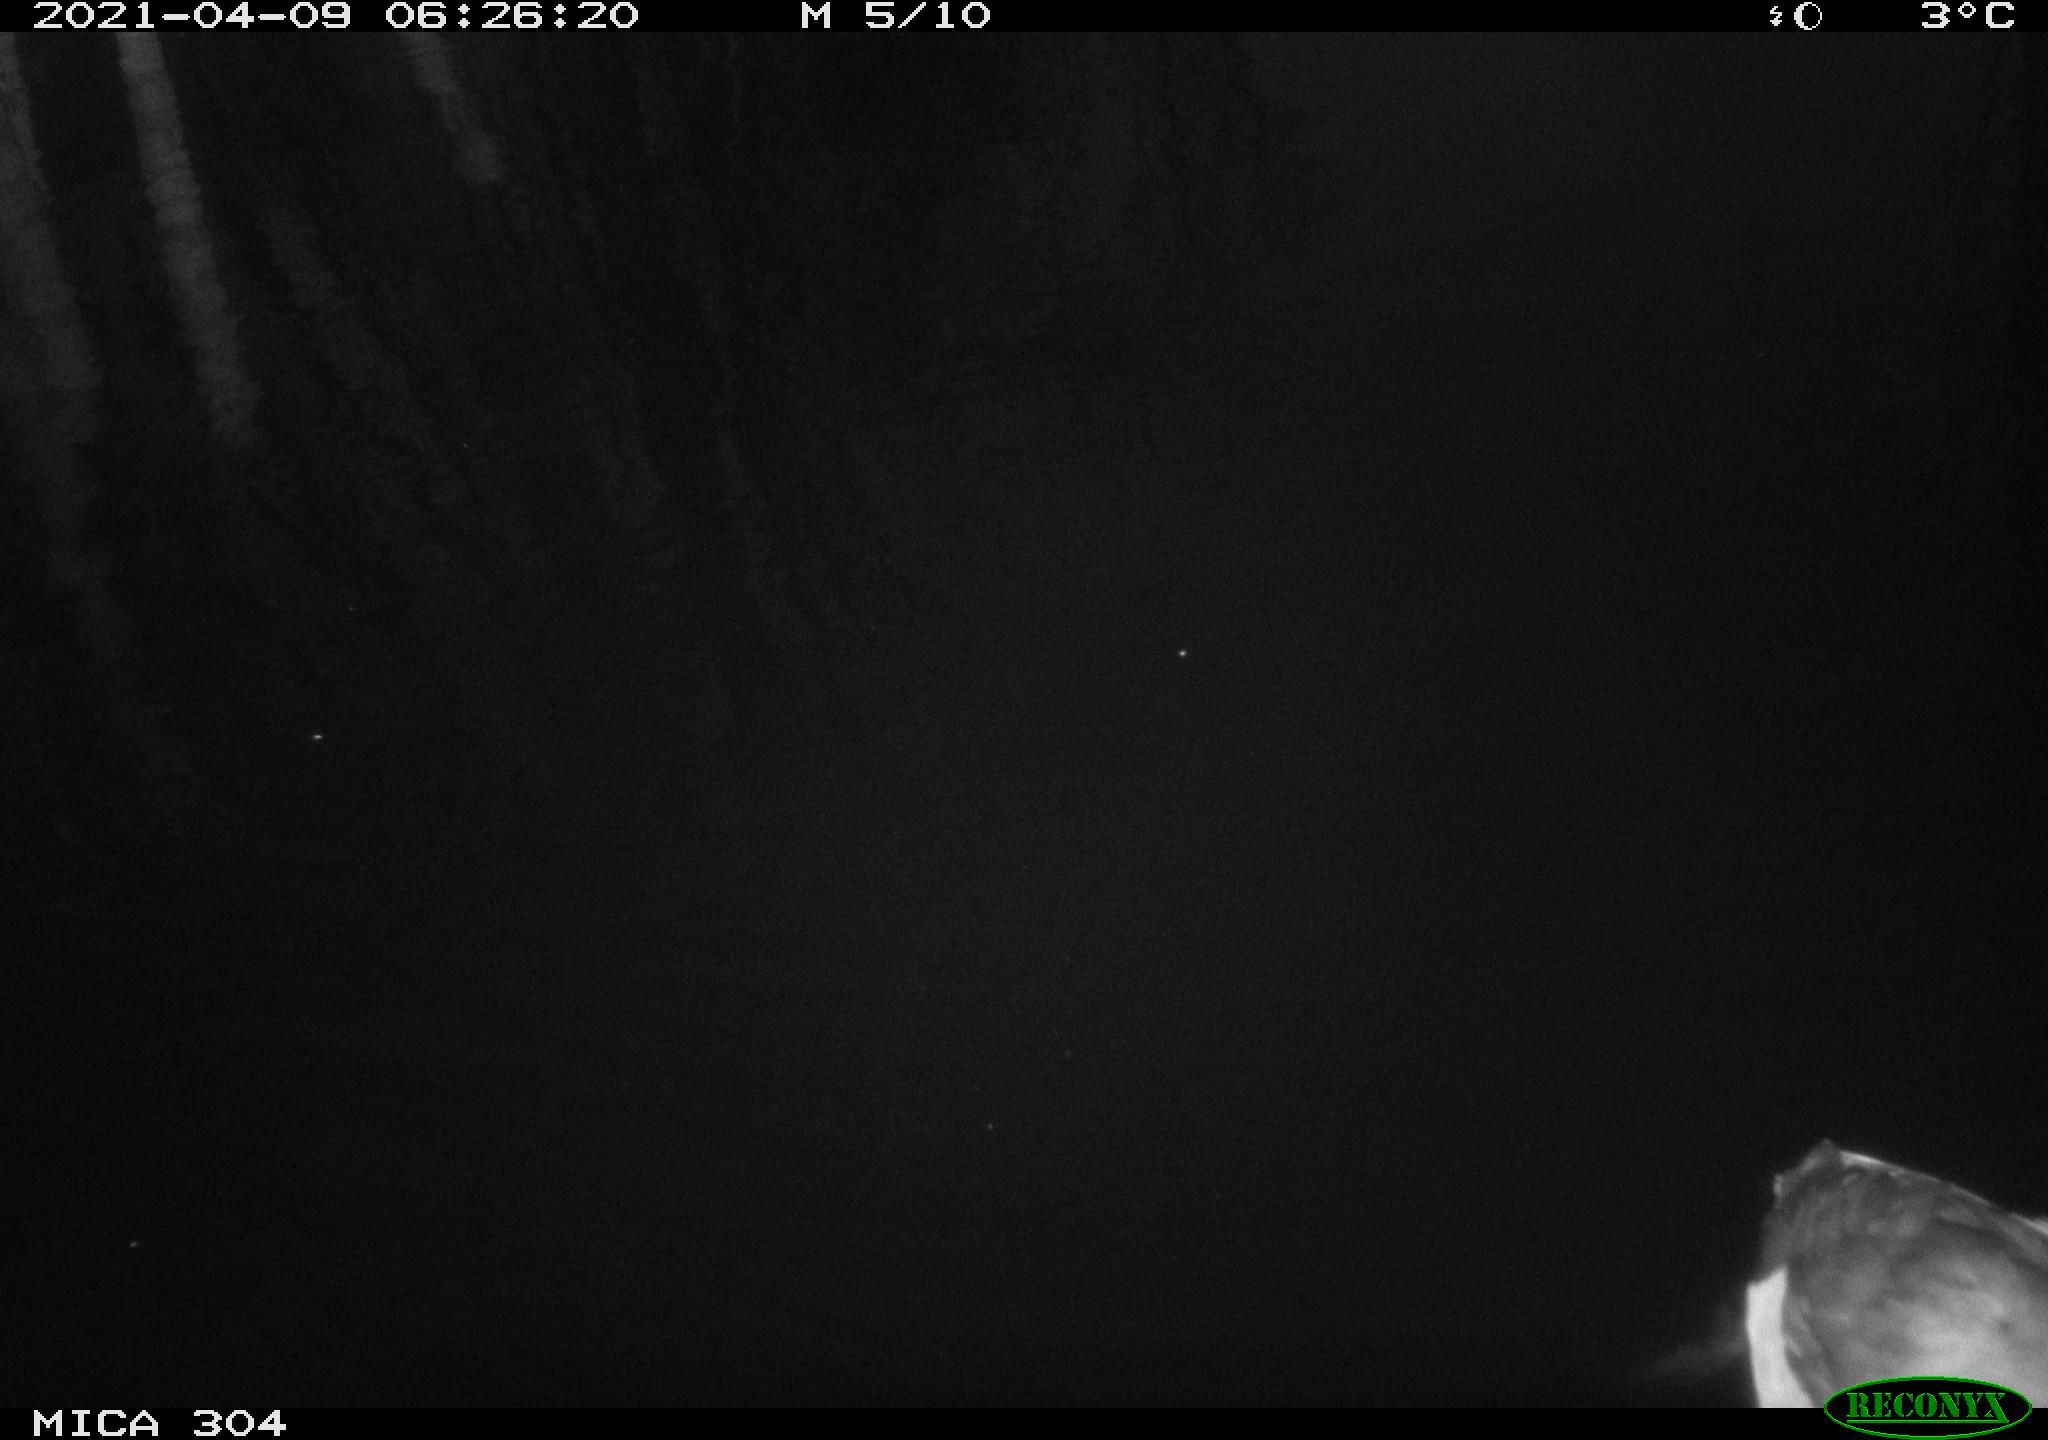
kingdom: Animalia
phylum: Chordata
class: Aves
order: Anseriformes
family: Anatidae
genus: Anas
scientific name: Anas
